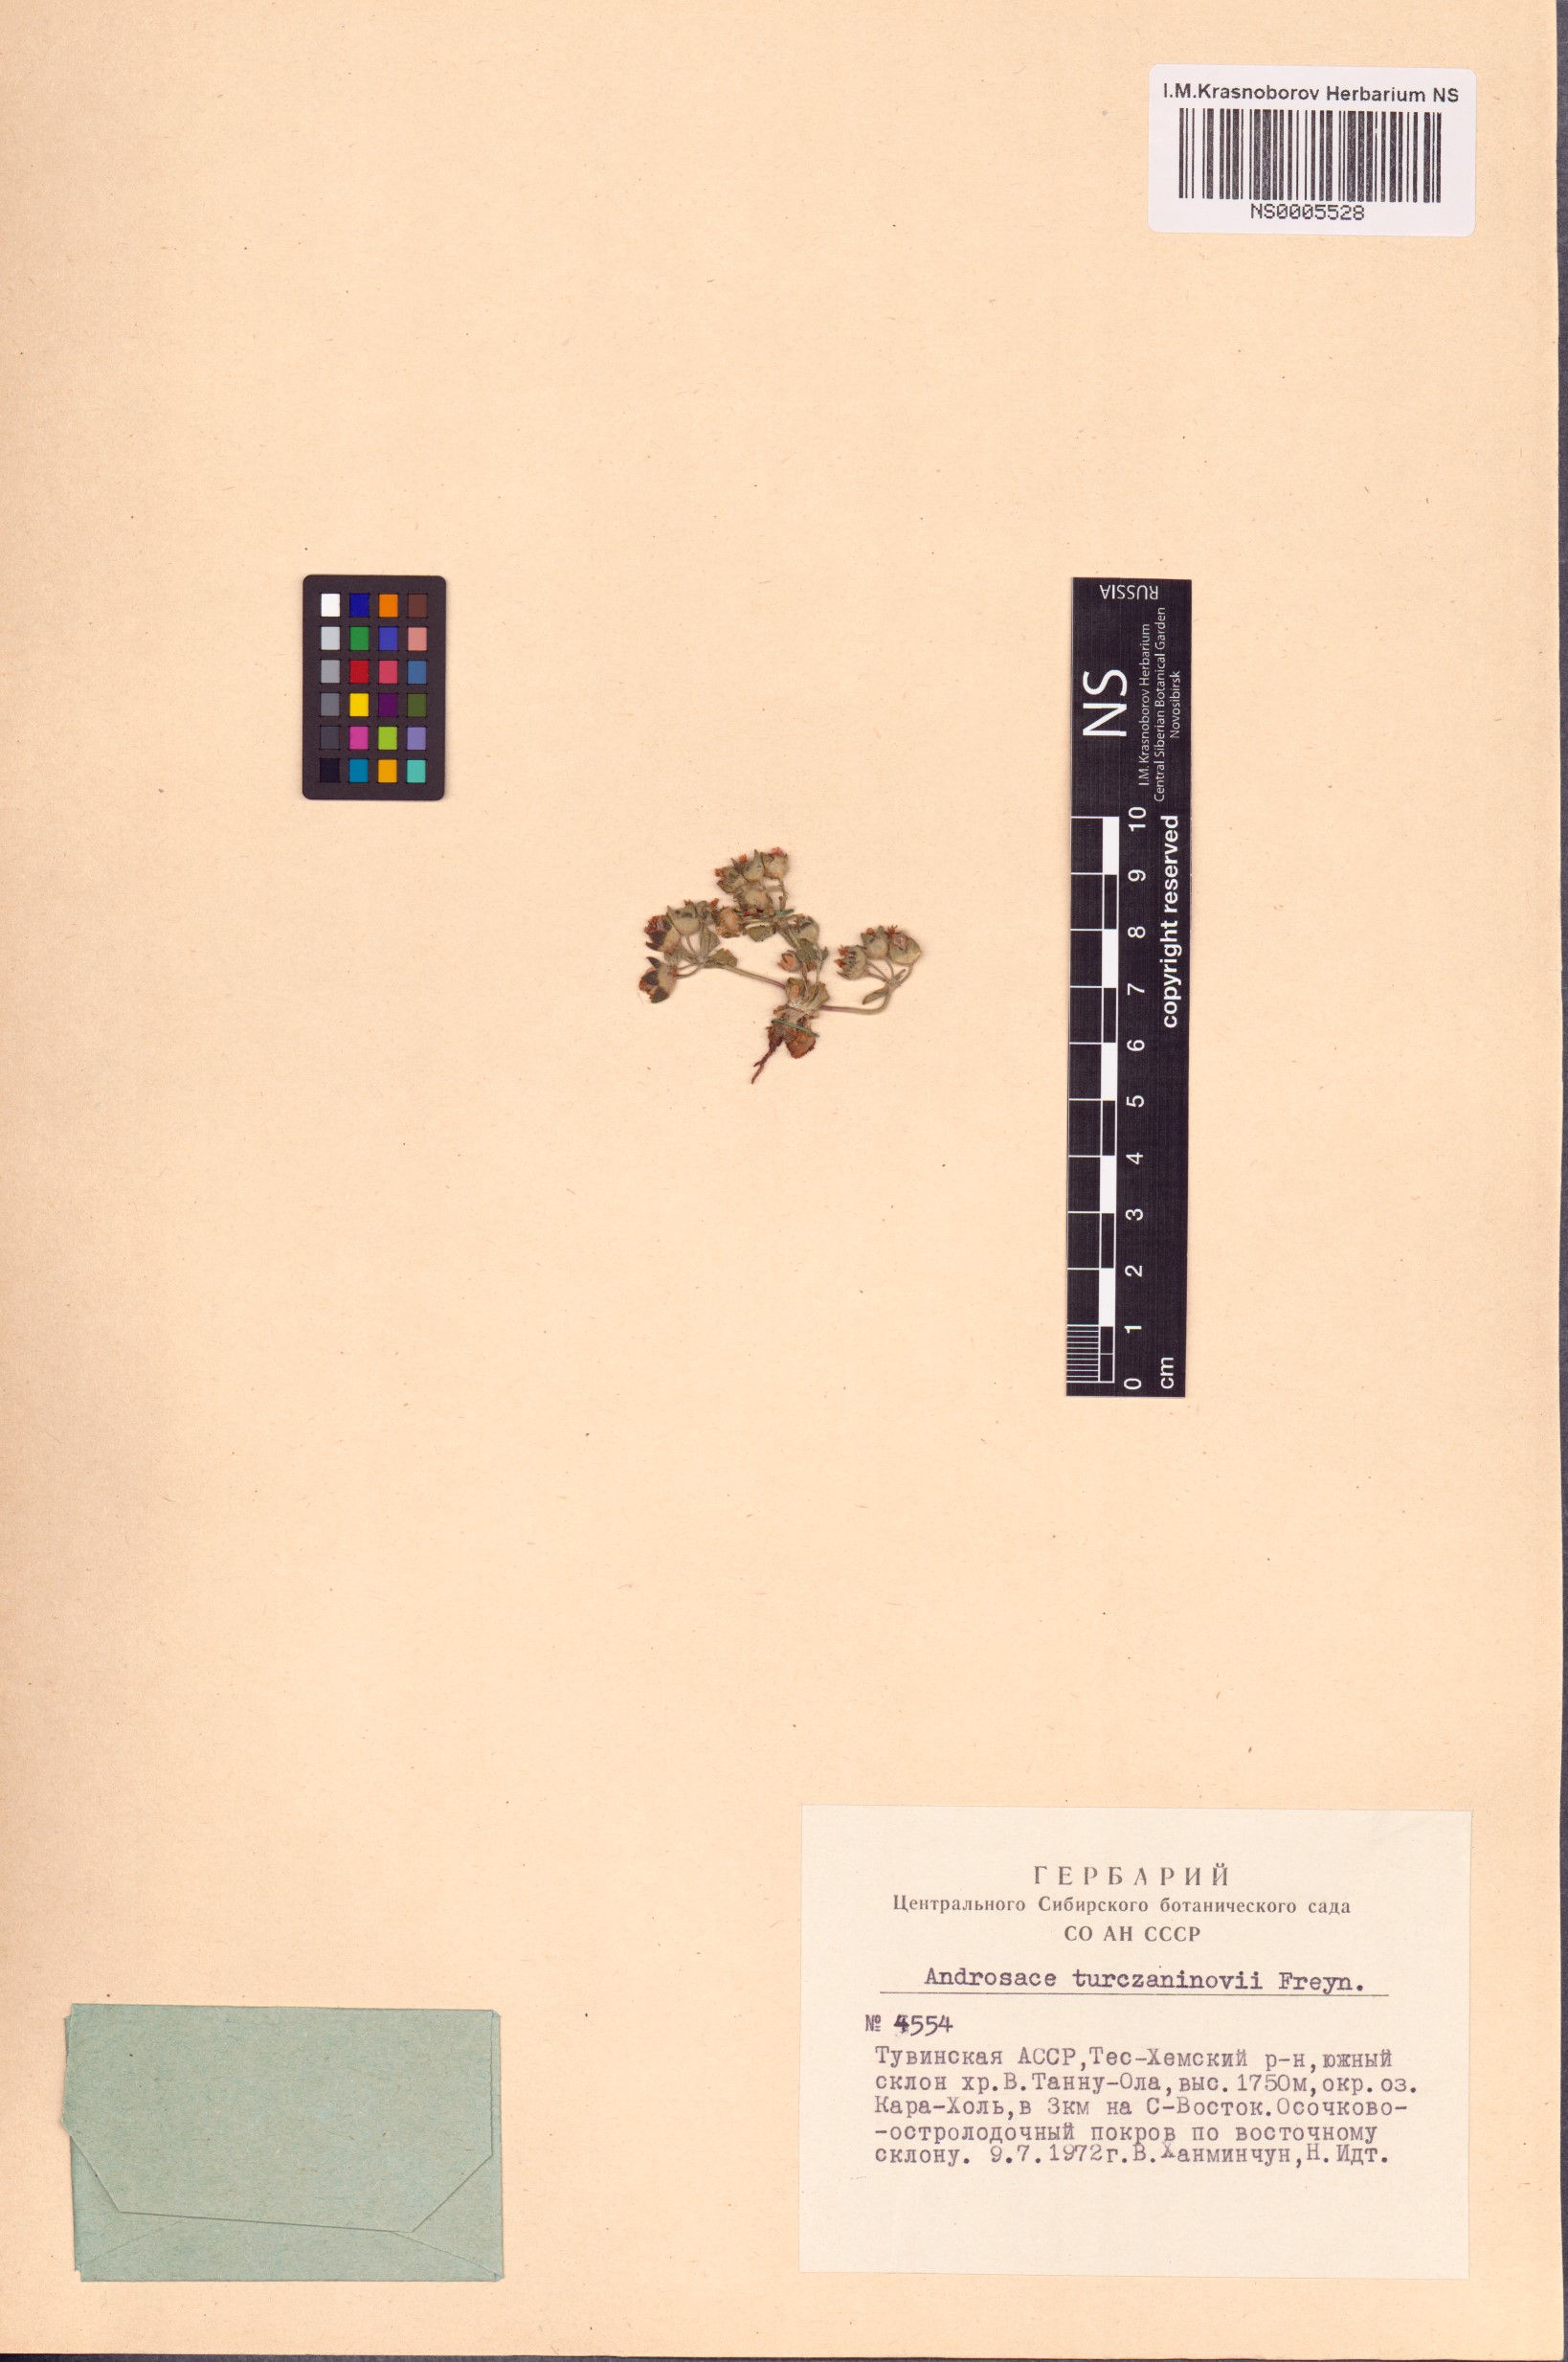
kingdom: Plantae
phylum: Tracheophyta
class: Magnoliopsida
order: Ericales
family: Primulaceae
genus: Androsace
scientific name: Androsace maxima
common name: Annual androsace
